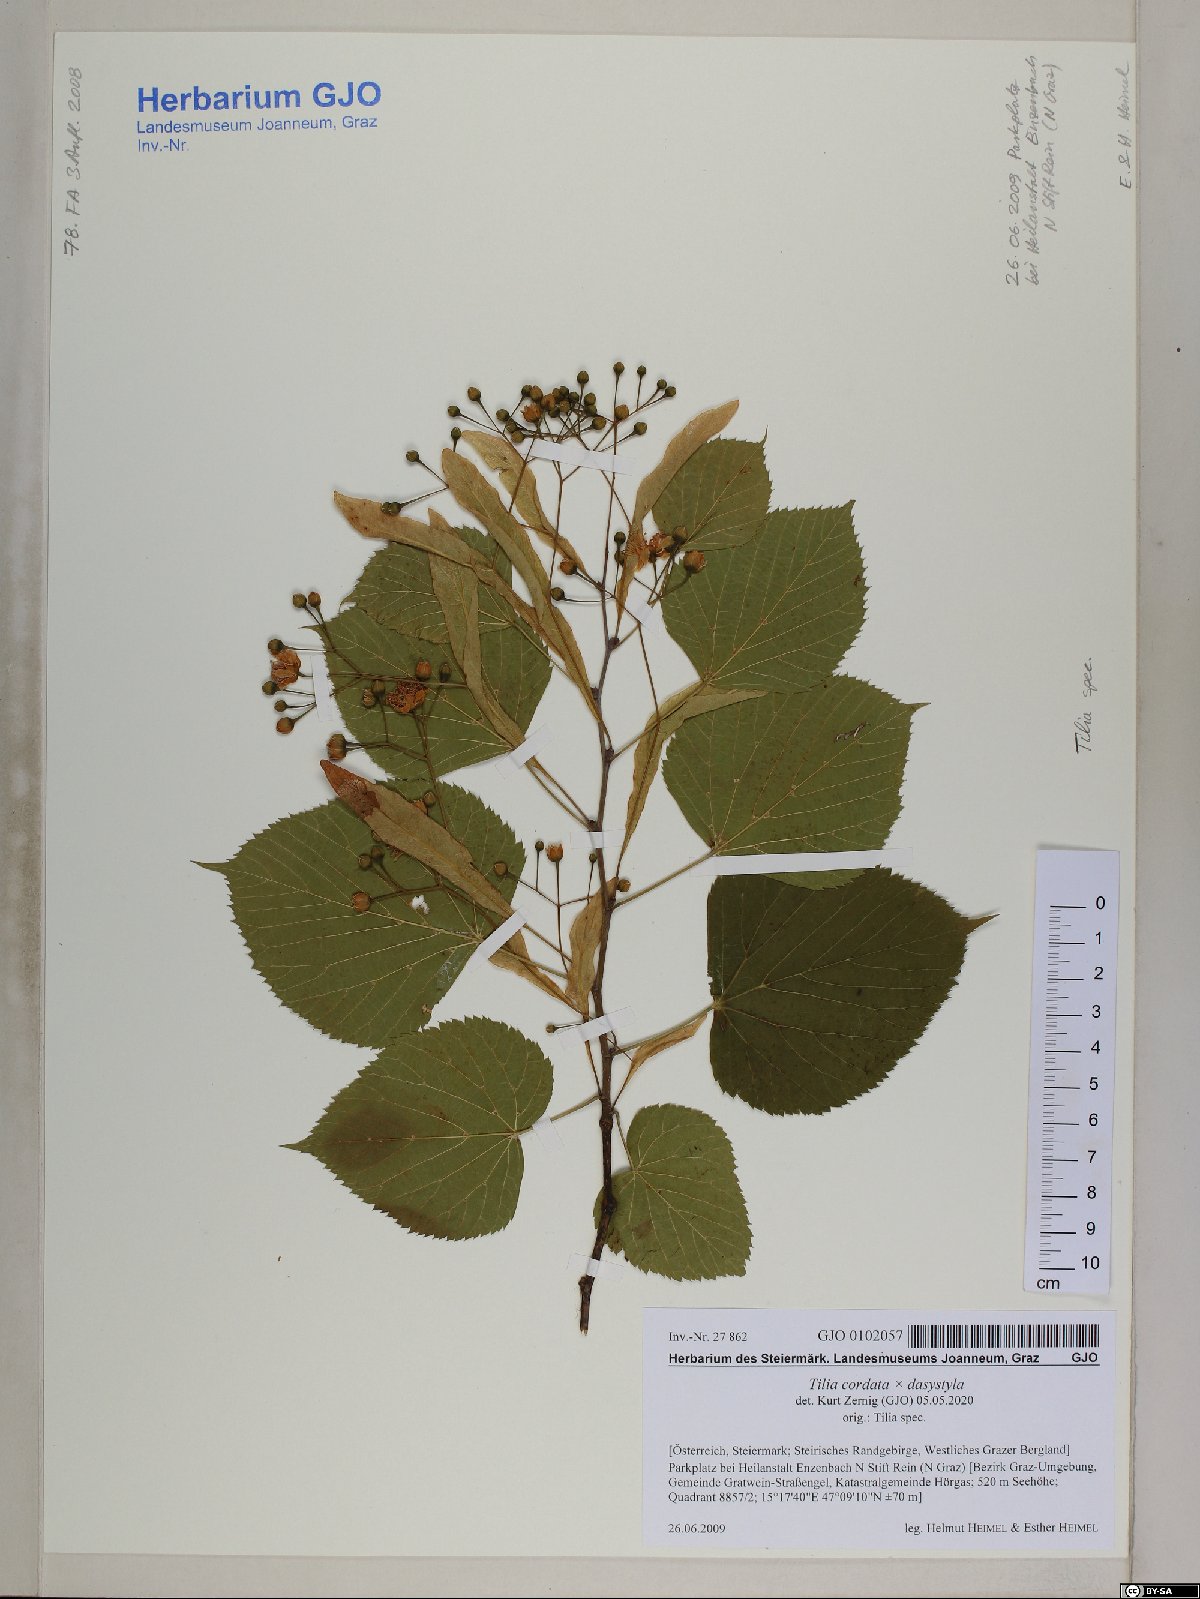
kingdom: Plantae
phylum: Tracheophyta
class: Magnoliopsida
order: Malvales
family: Tiliaceae
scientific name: Tiliaceae
